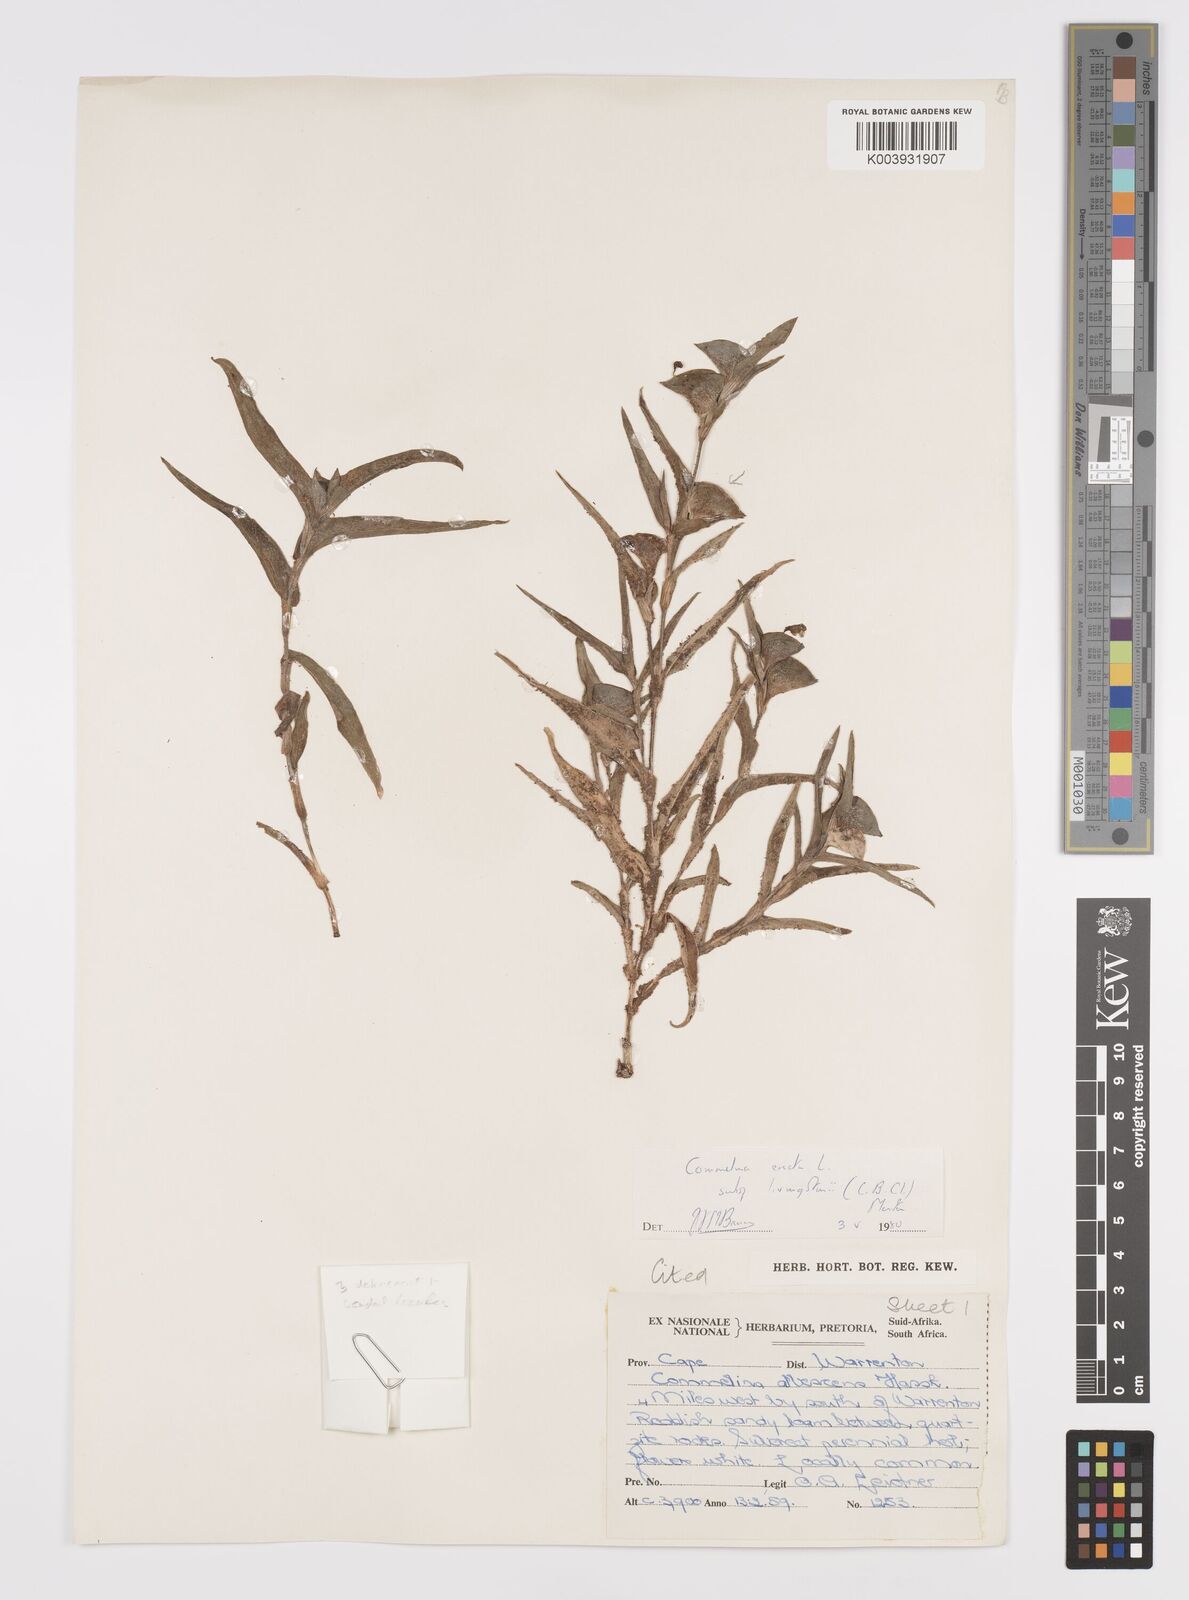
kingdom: Plantae
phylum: Tracheophyta
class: Liliopsida
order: Commelinales
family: Commelinaceae
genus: Commelina
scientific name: Commelina erecta
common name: Blousel blommetjie
